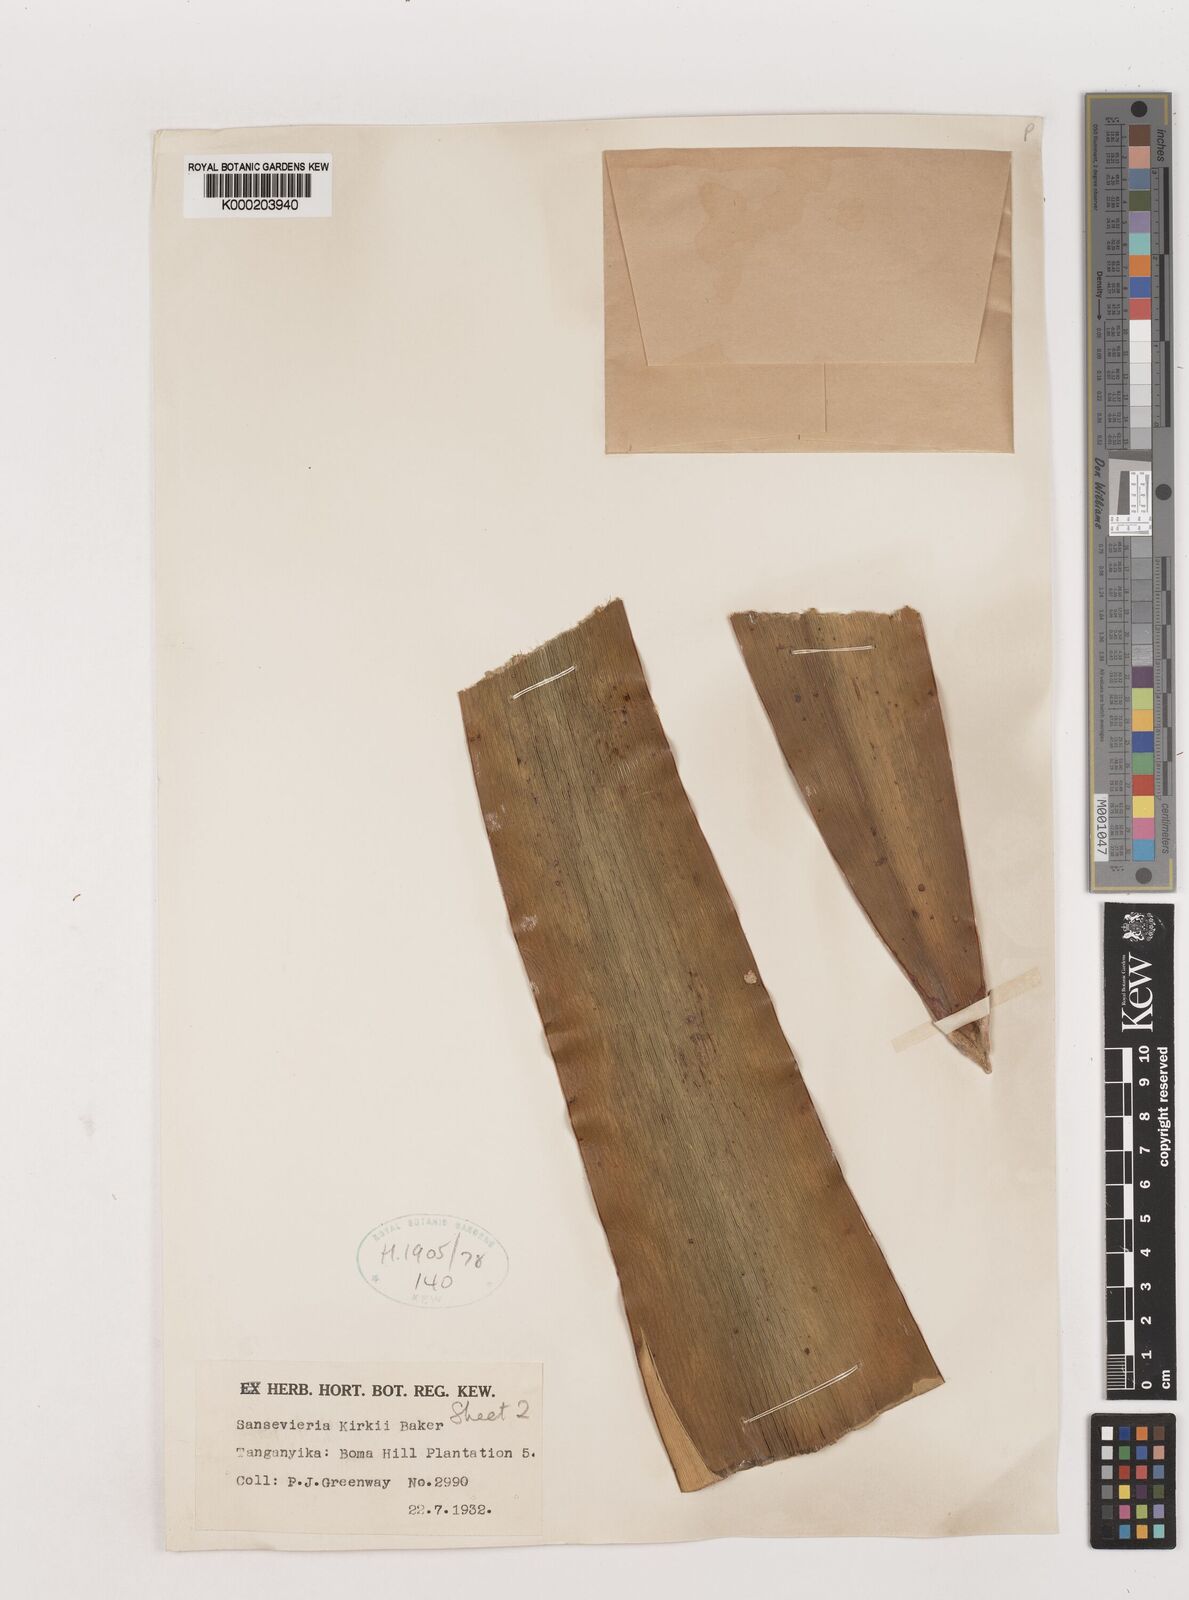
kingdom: Plantae
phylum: Tracheophyta
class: Liliopsida
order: Asparagales
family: Asparagaceae
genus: Dracaena
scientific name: Dracaena pethera
